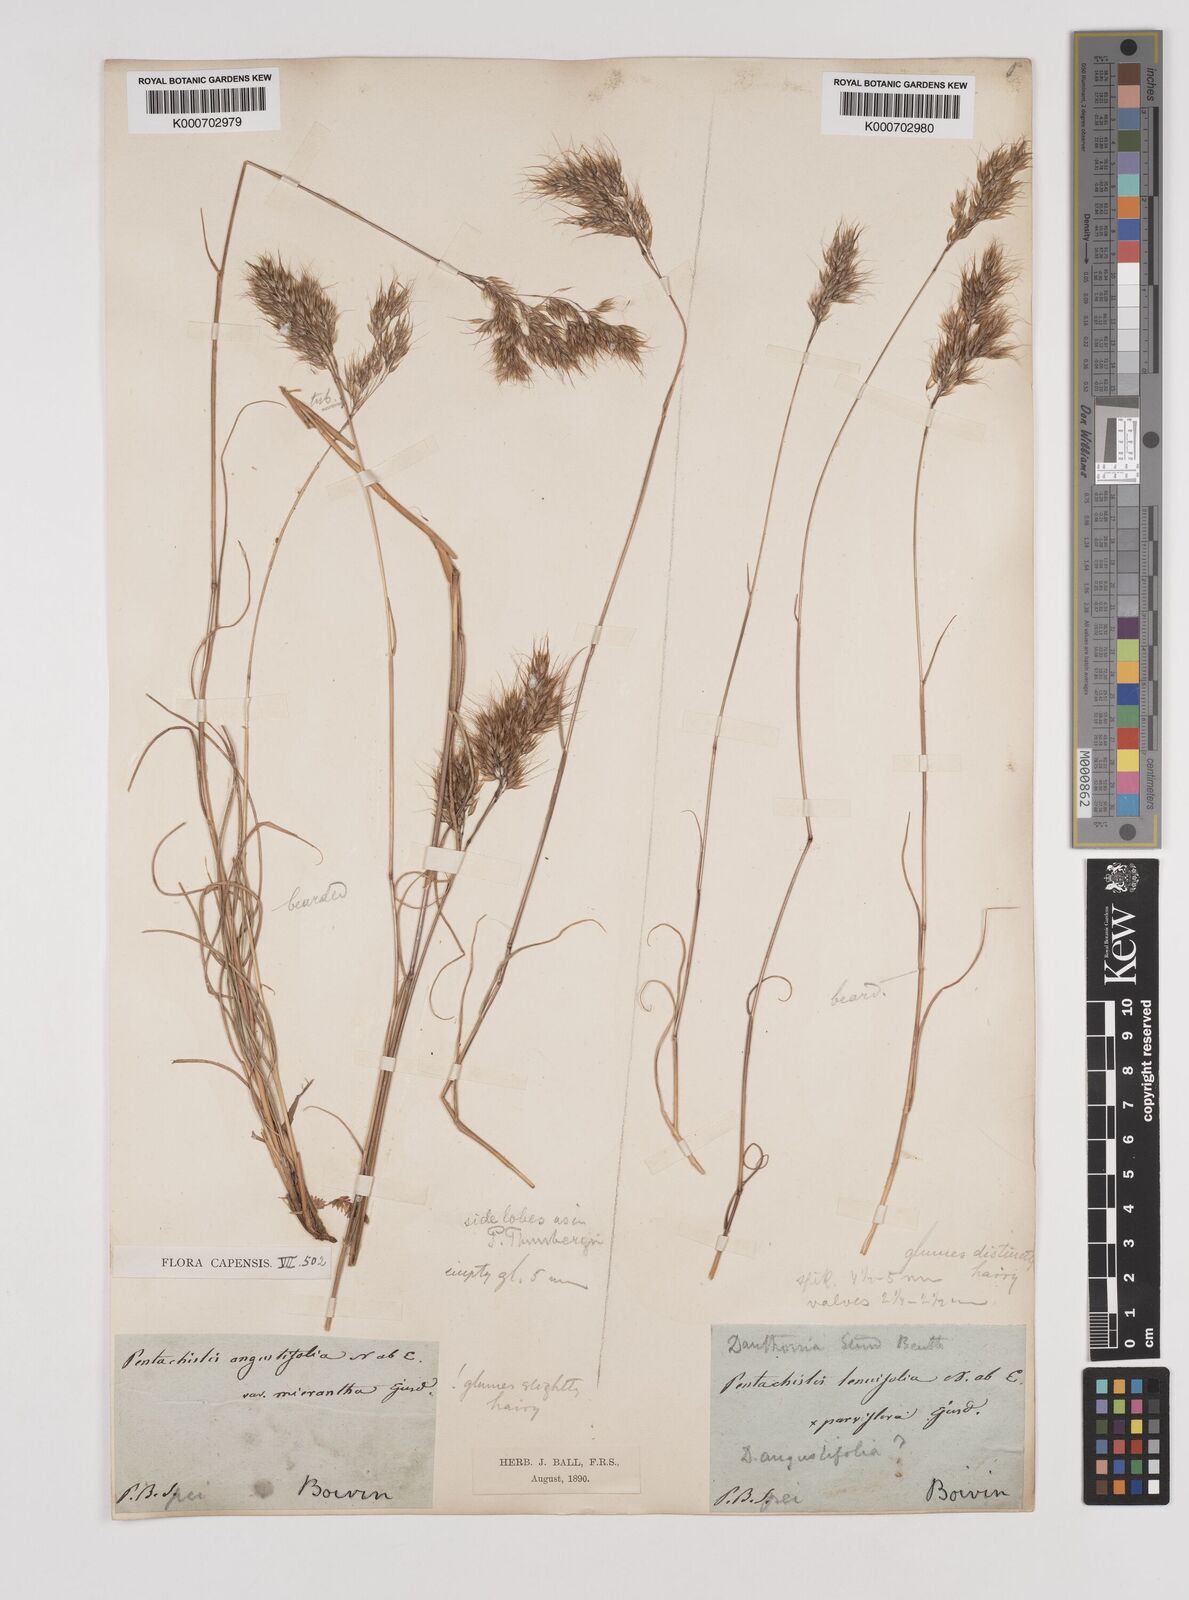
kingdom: Plantae
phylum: Tracheophyta
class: Liliopsida
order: Poales
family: Poaceae
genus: Pentameris
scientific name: Pentameris pallida
